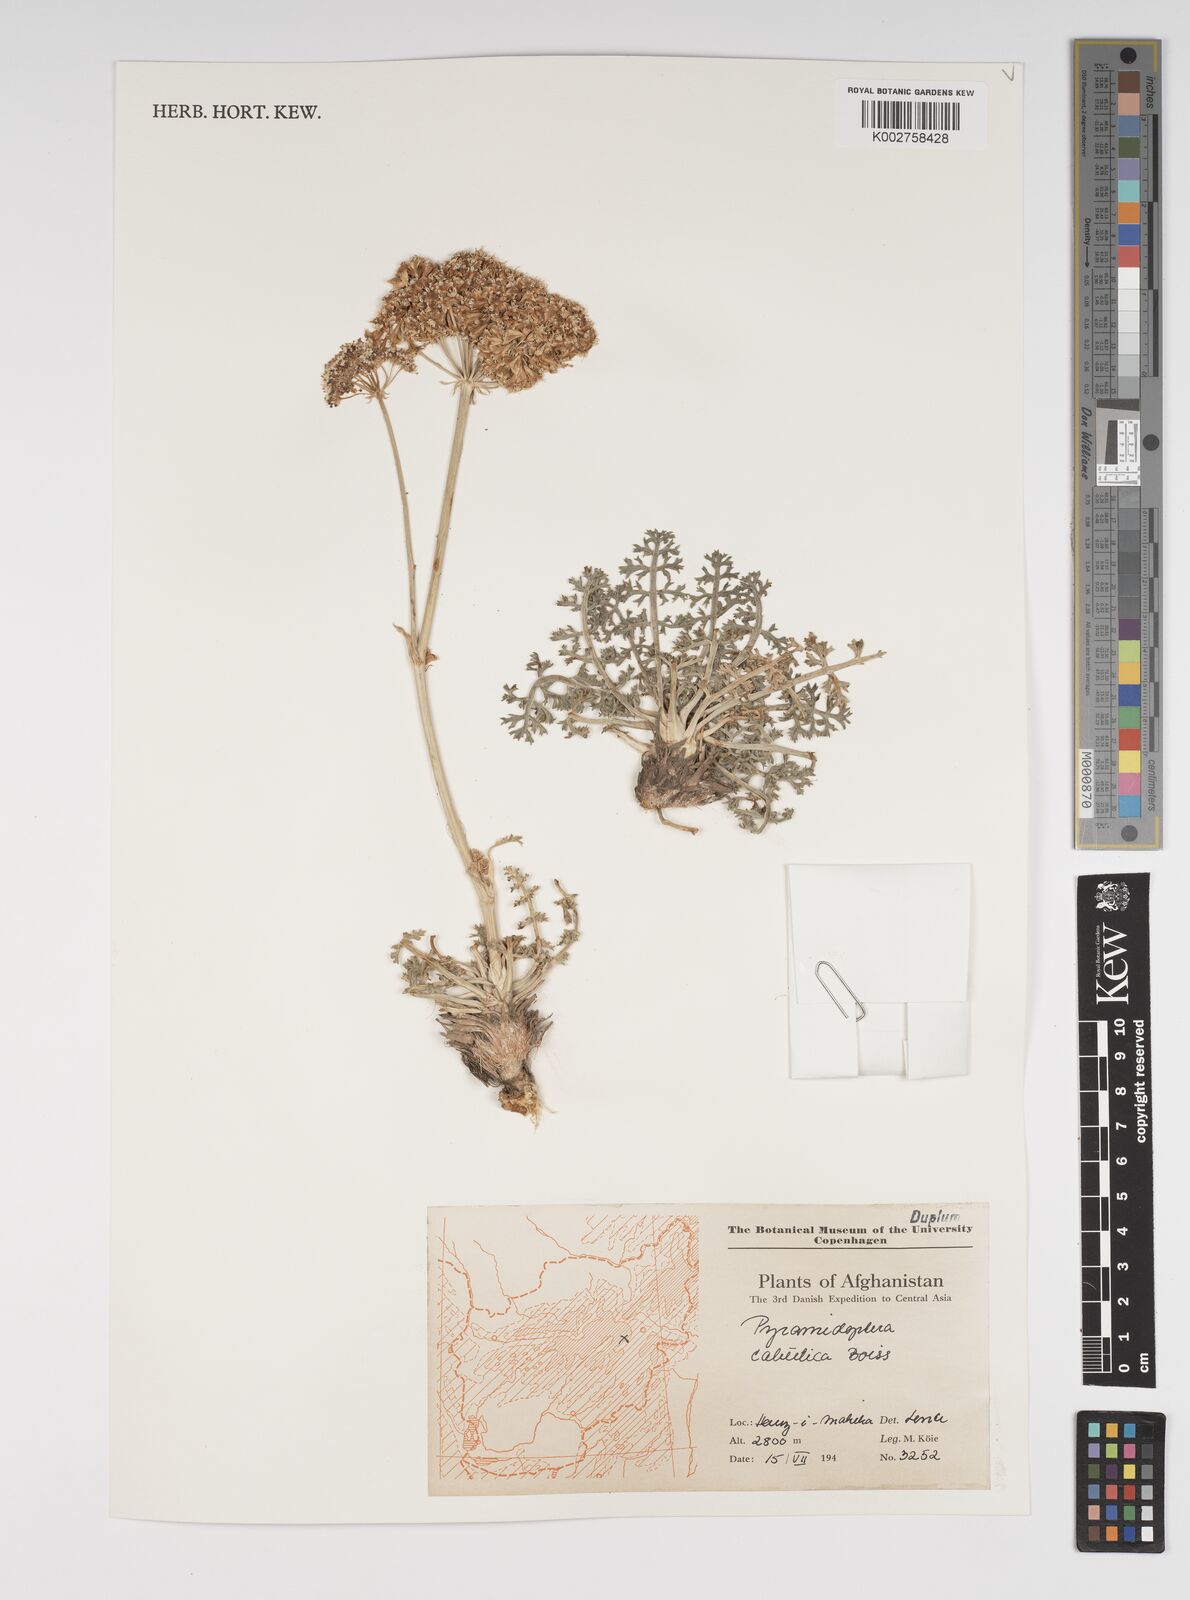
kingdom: Plantae
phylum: Tracheophyta
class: Magnoliopsida
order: Apiales
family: Apiaceae
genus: Pyramidoptera
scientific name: Pyramidoptera cabulica
